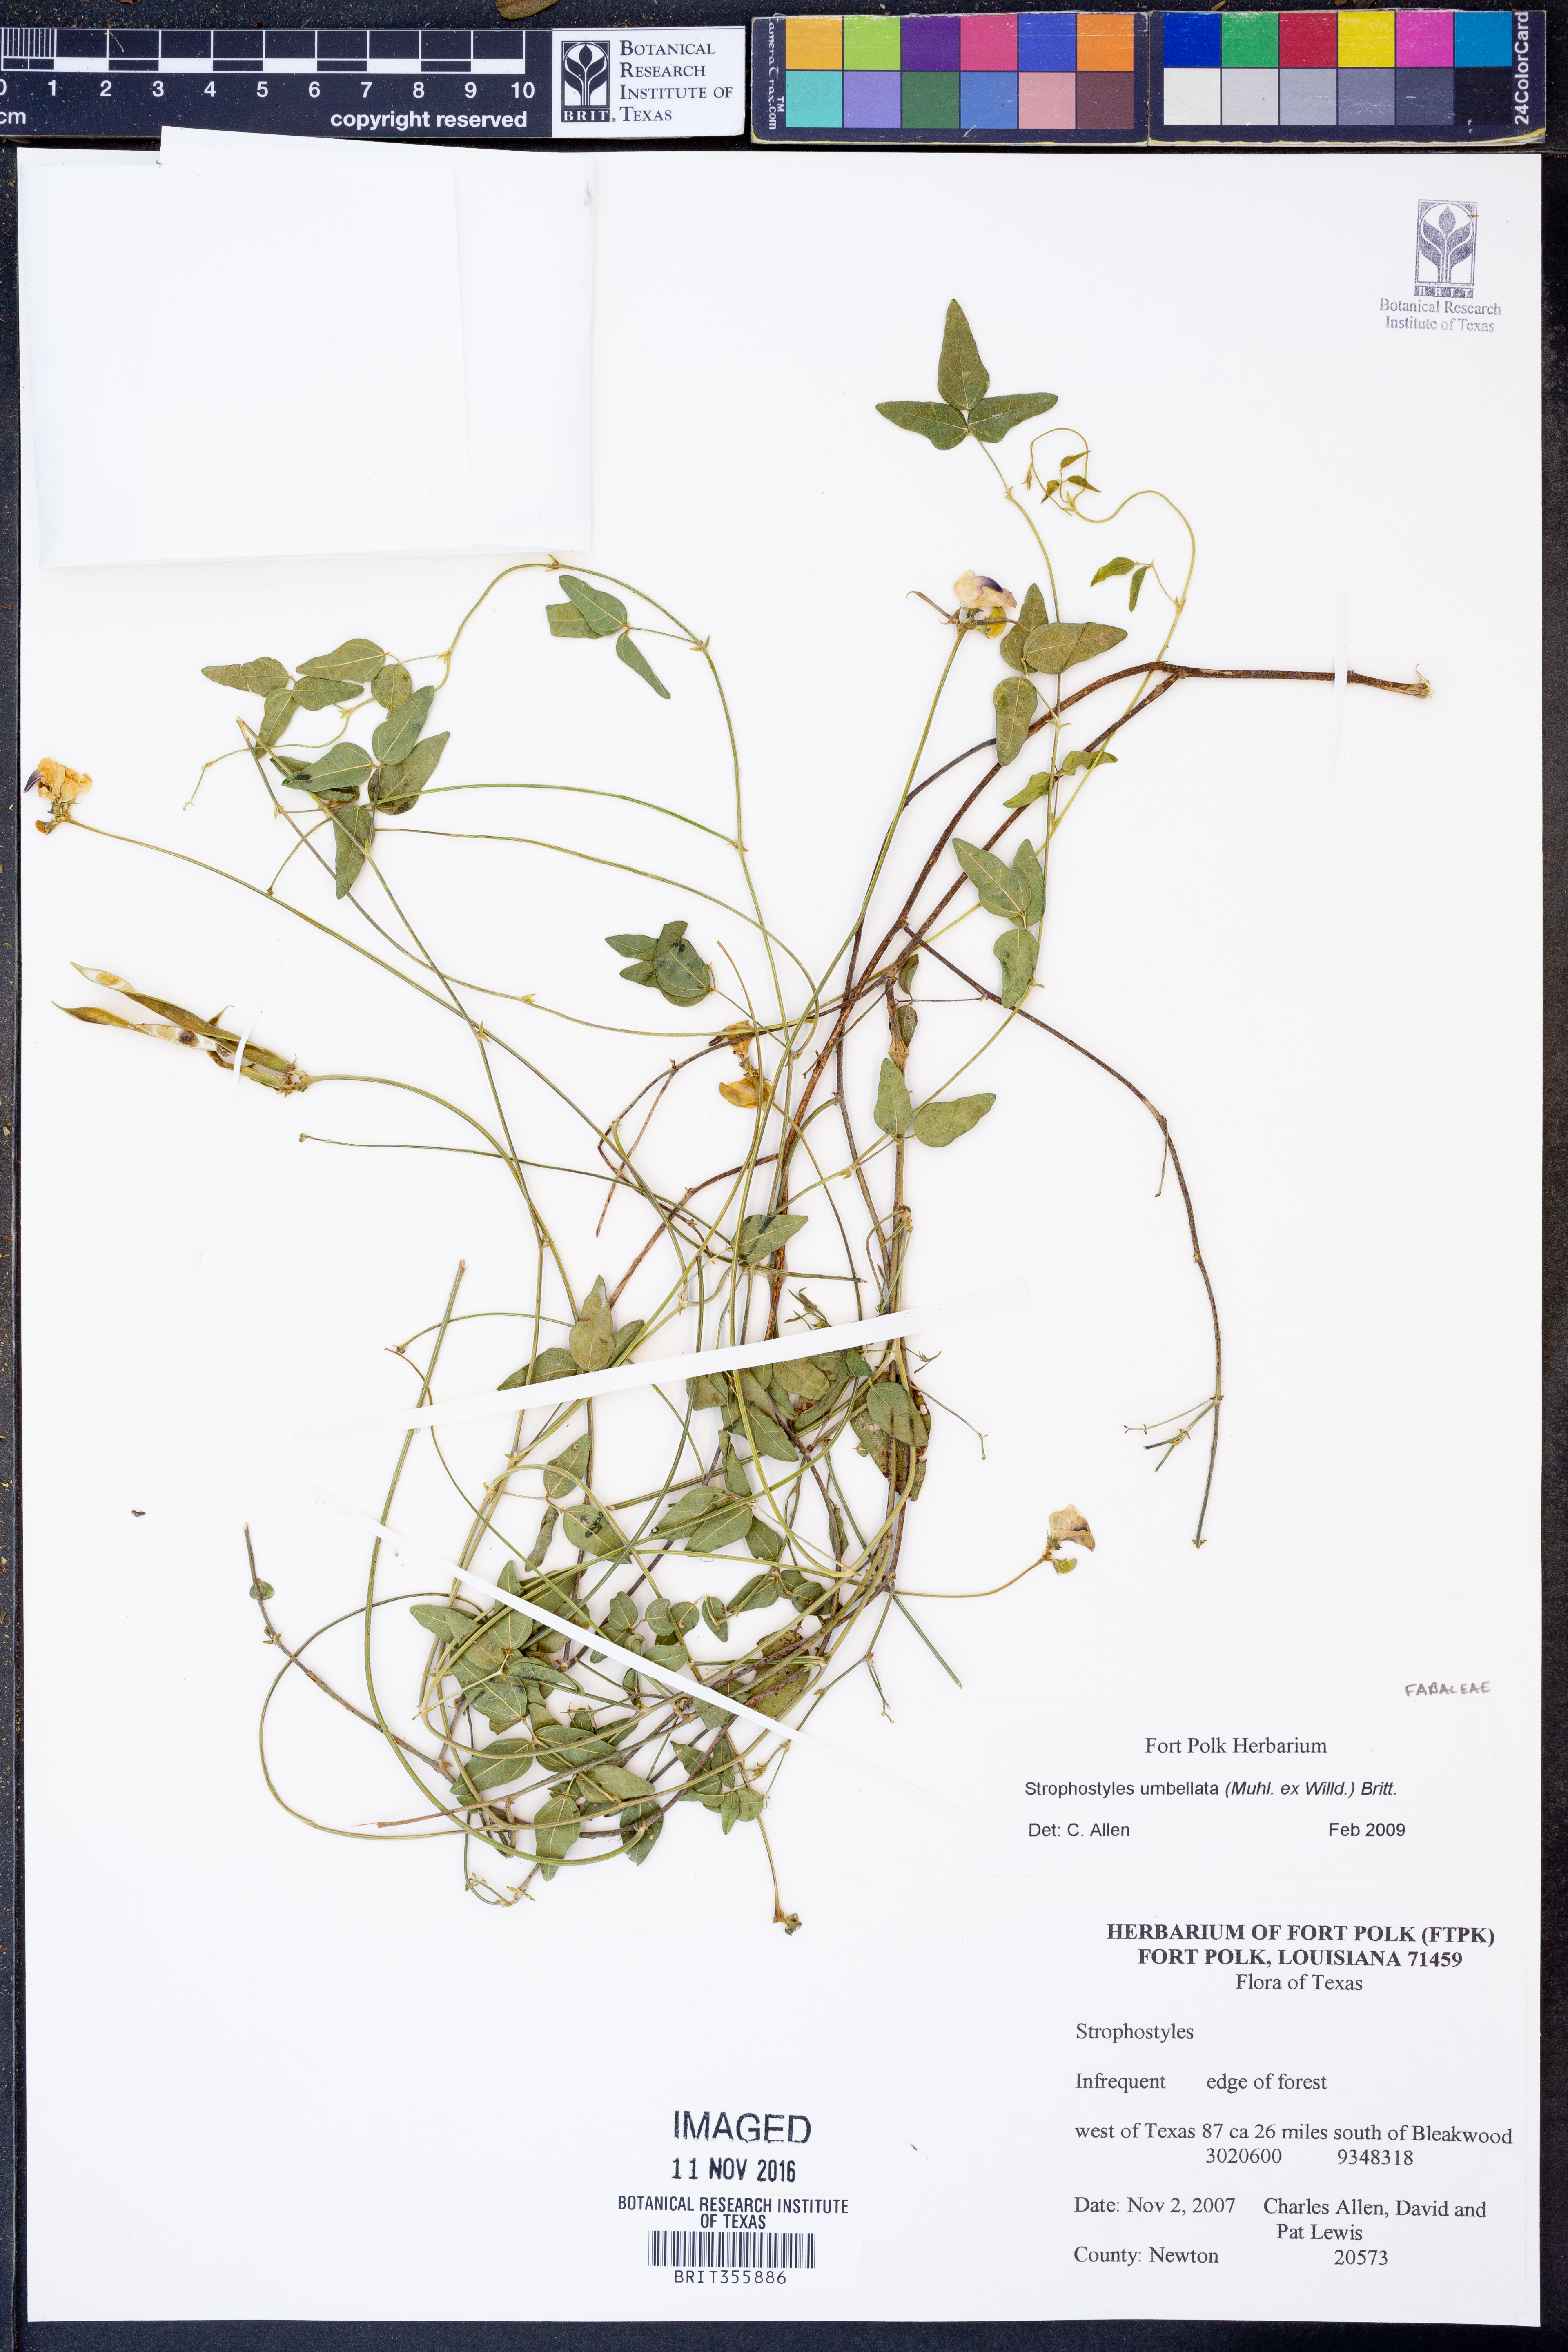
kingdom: Plantae
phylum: Tracheophyta
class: Magnoliopsida
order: Fabales
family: Fabaceae
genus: Strophostyles
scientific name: Strophostyles umbellata
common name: Perennial wild bean
